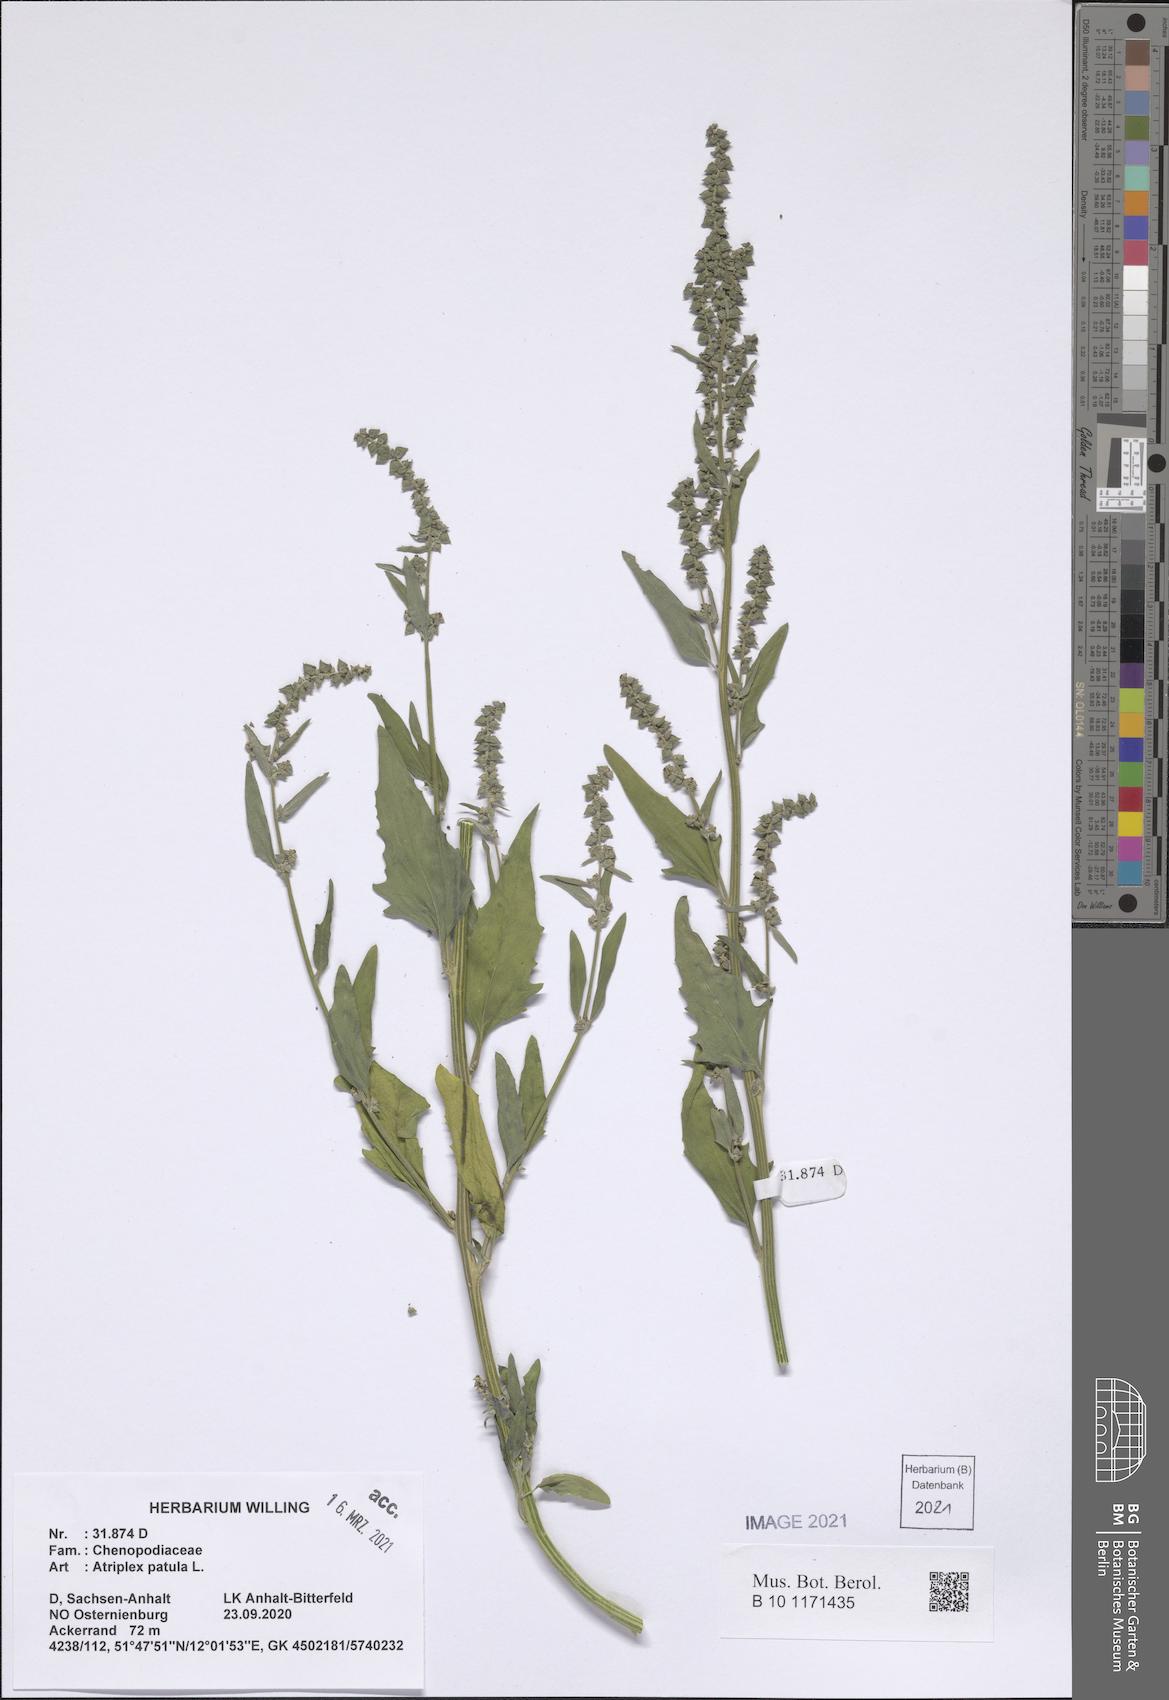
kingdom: Plantae
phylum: Tracheophyta
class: Magnoliopsida
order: Caryophyllales
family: Amaranthaceae
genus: Atriplex
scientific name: Atriplex patula
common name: Common orache
